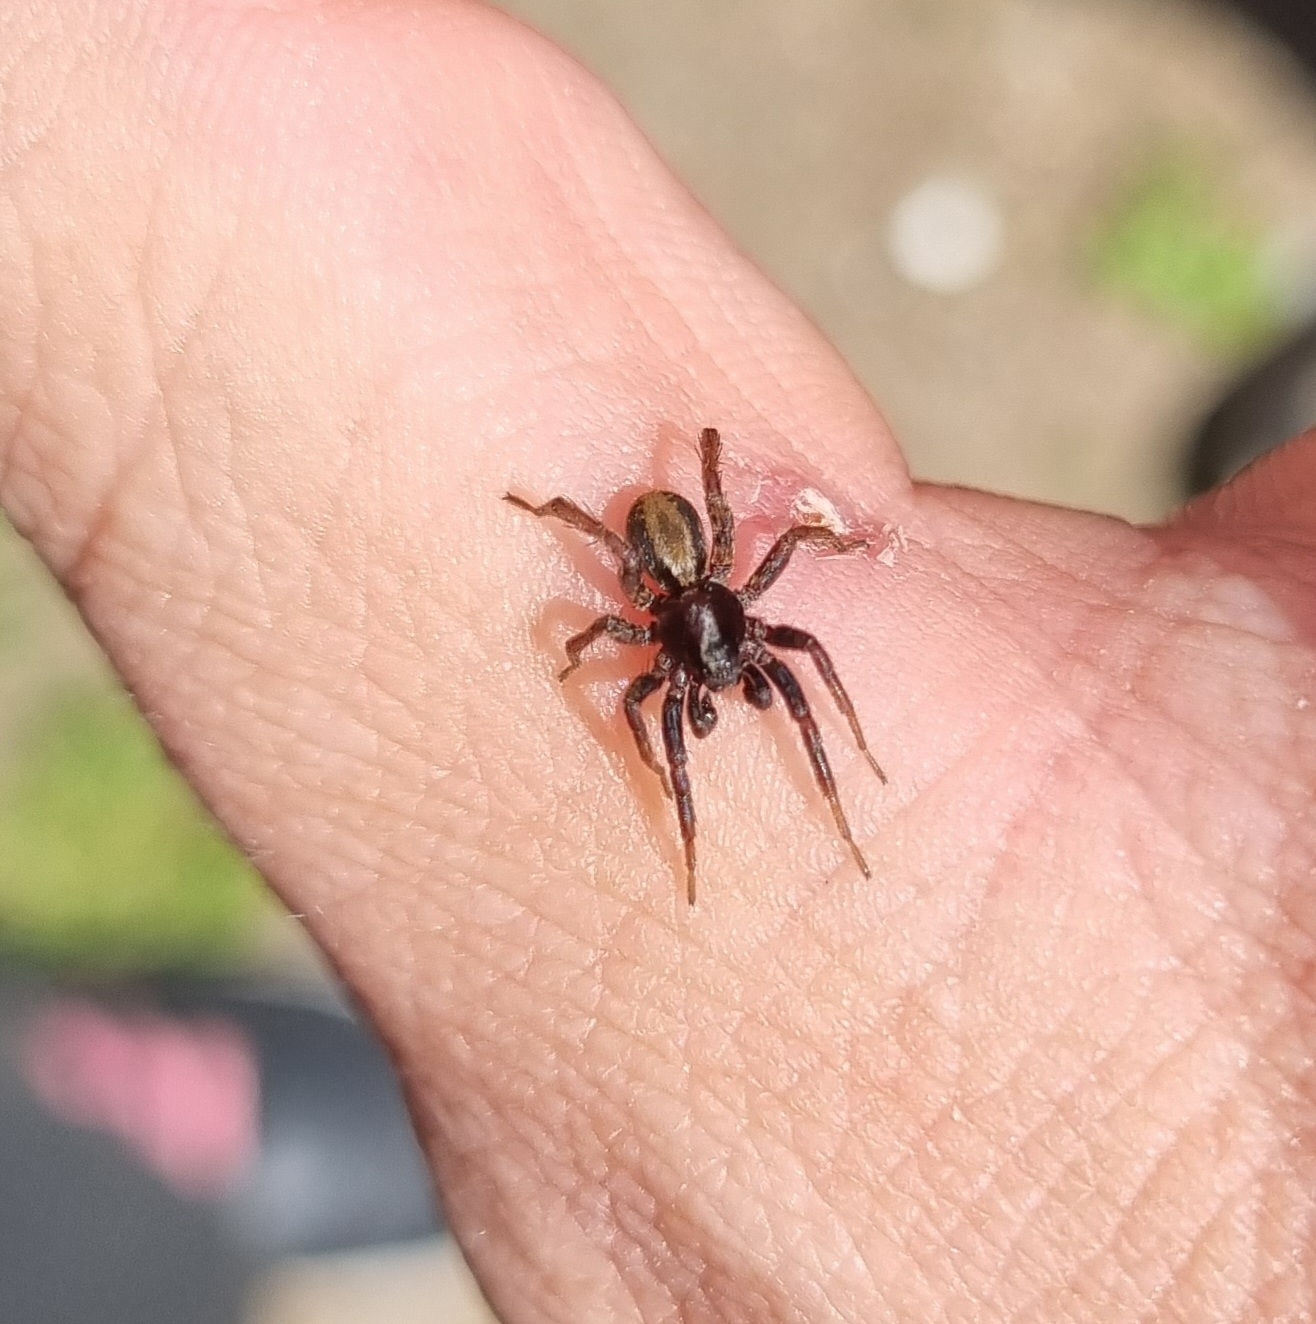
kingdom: Animalia
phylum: Arthropoda
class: Arachnida
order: Araneae
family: Lycosidae
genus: Alopecosa
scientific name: Alopecosa pulverulenta
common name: Kilekæmpejæger
